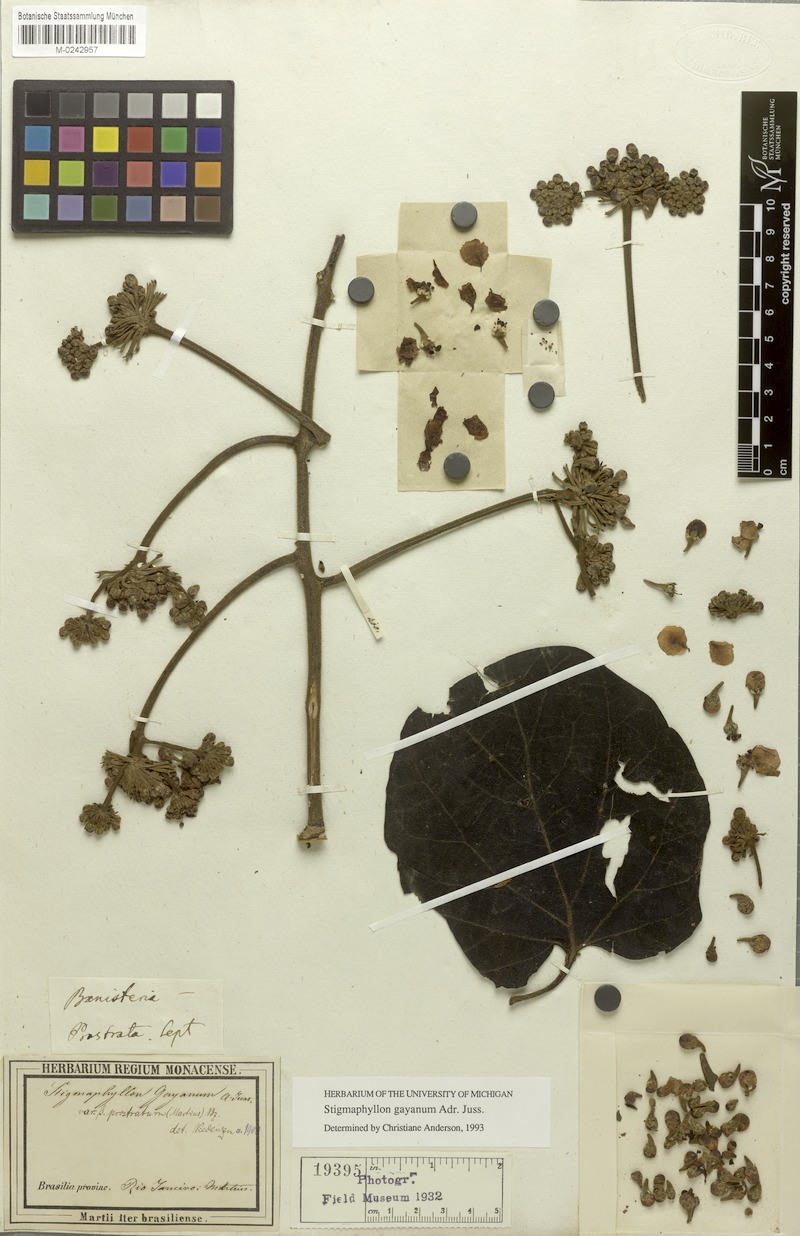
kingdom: Plantae
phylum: Tracheophyta
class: Magnoliopsida
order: Malpighiales
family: Malpighiaceae
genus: Stigmaphyllon
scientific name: Stigmaphyllon gayanum
